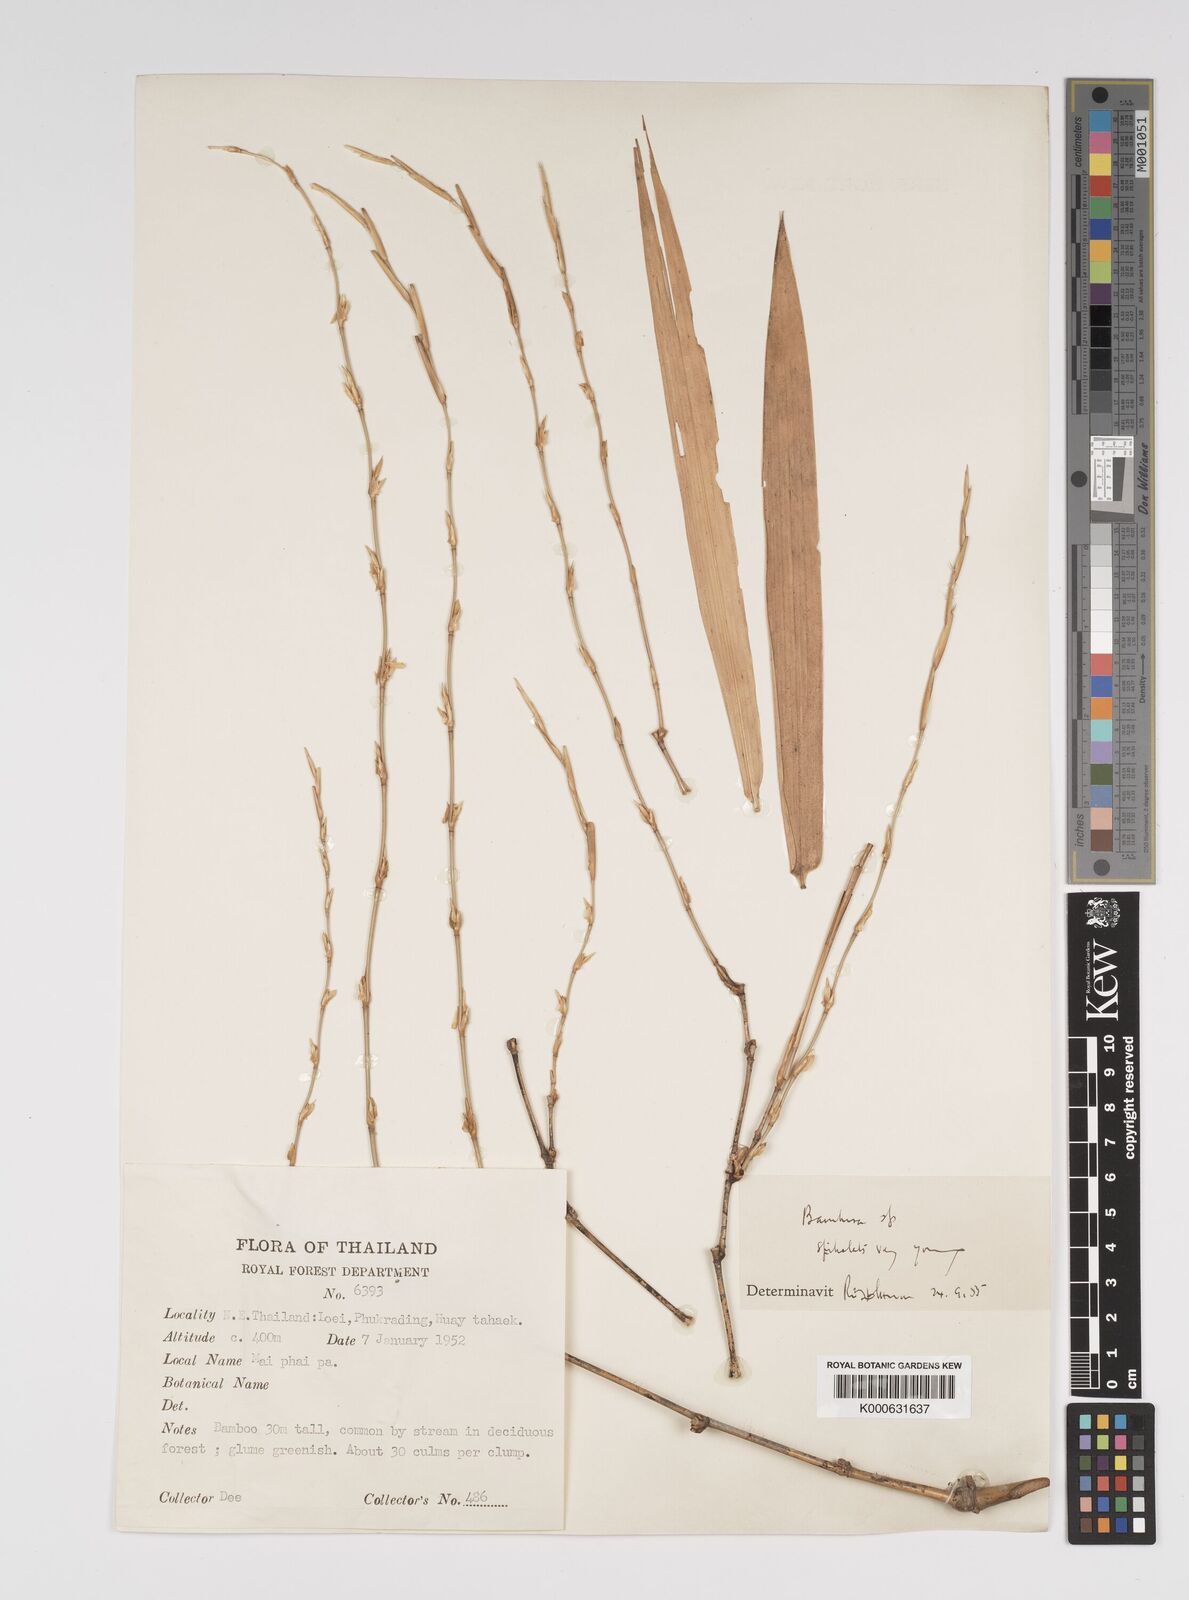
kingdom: Plantae
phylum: Tracheophyta
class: Liliopsida
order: Poales
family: Poaceae
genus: Bambusa
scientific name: Bambusa
